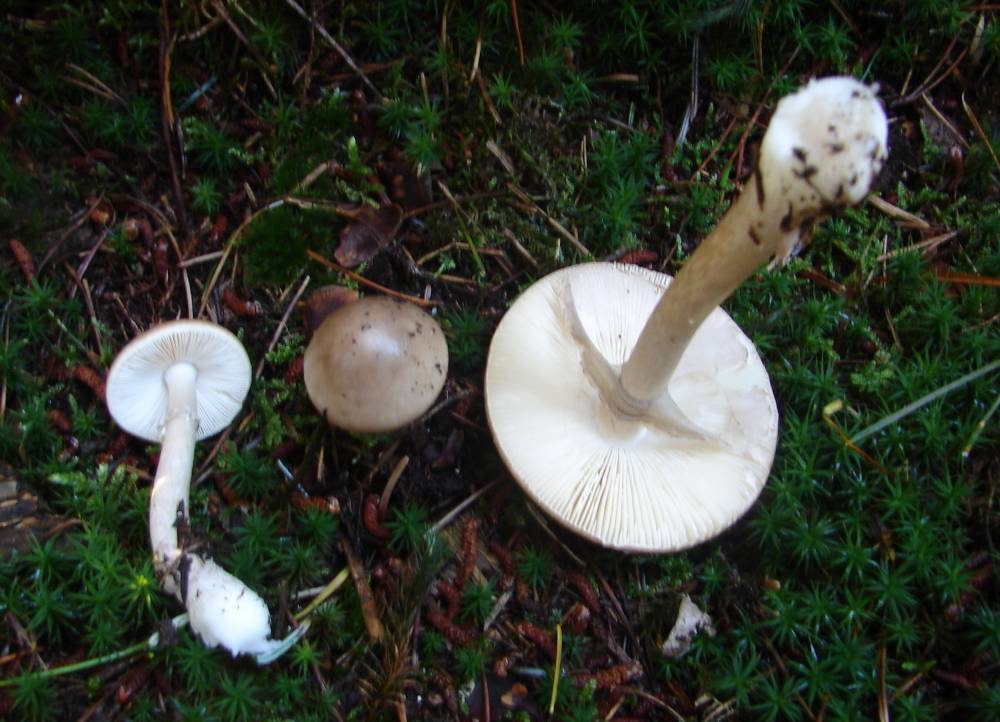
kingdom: Fungi
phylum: Basidiomycota
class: Agaricomycetes
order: Agaricales
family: Amanitaceae
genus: Amanita
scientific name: Amanita porphyria
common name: porfyr-fluesvamp
